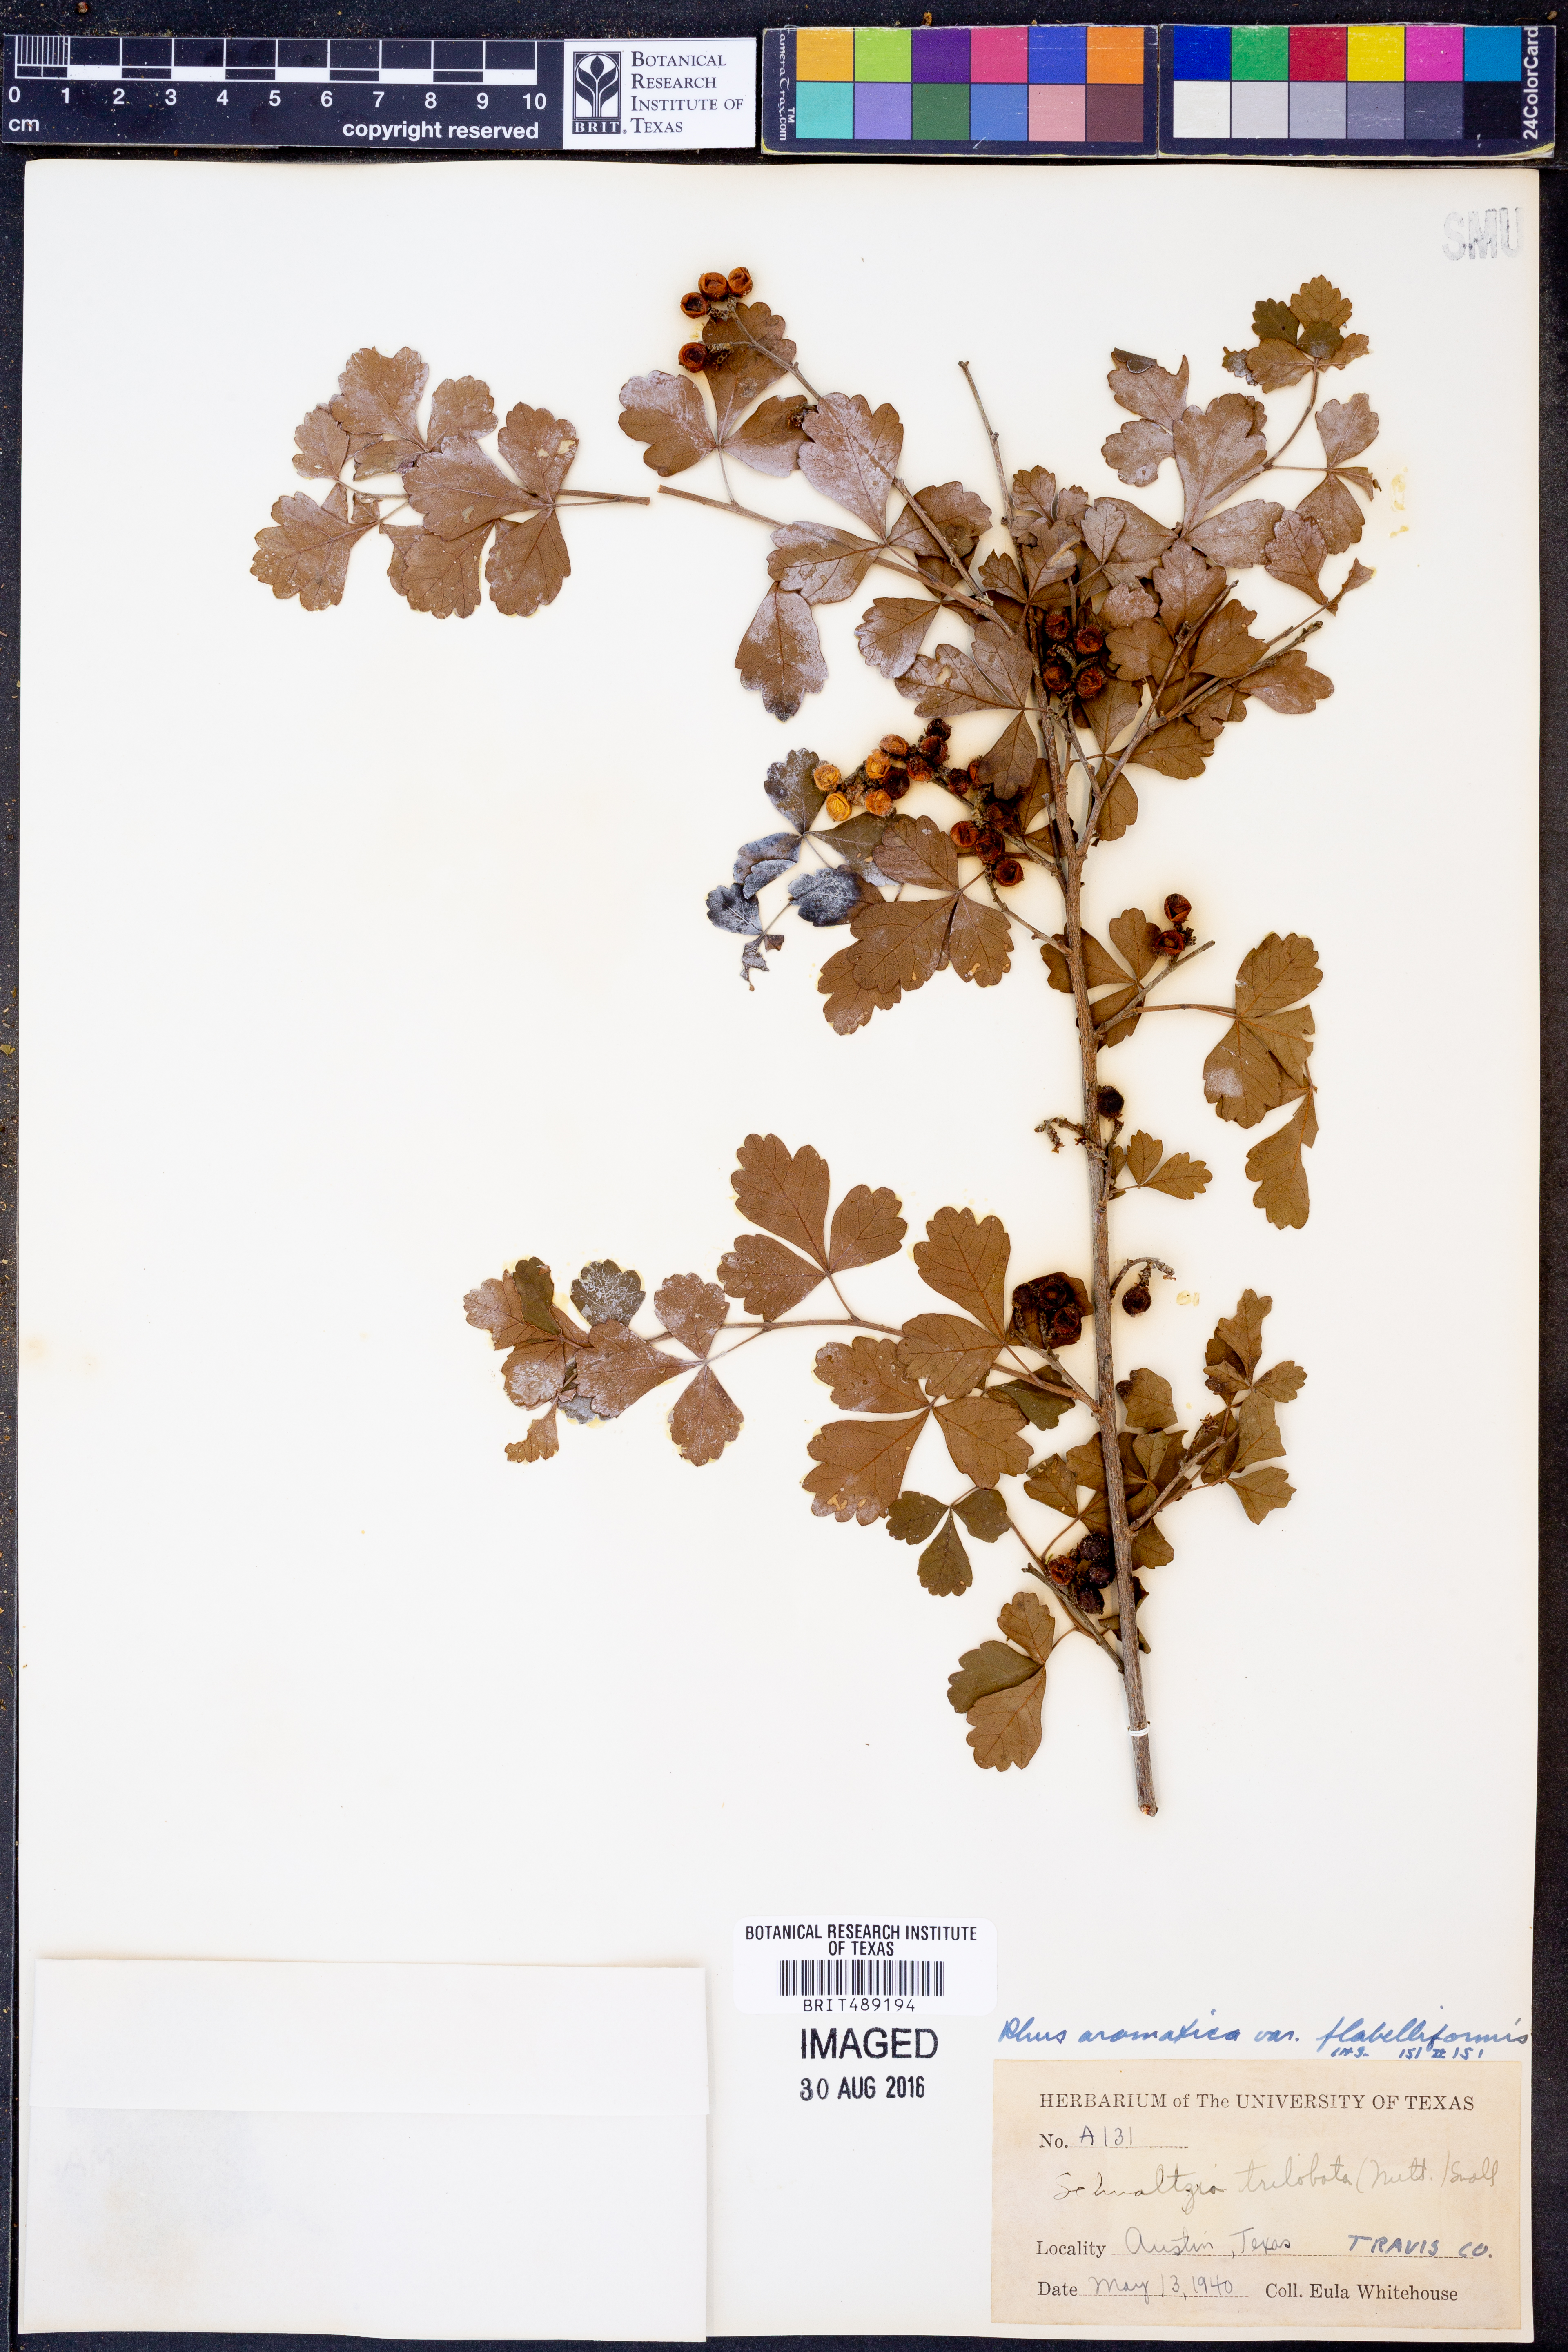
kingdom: Plantae
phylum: Tracheophyta
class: Magnoliopsida
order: Sapindales
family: Anacardiaceae
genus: Rhus
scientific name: Rhus trilobata
